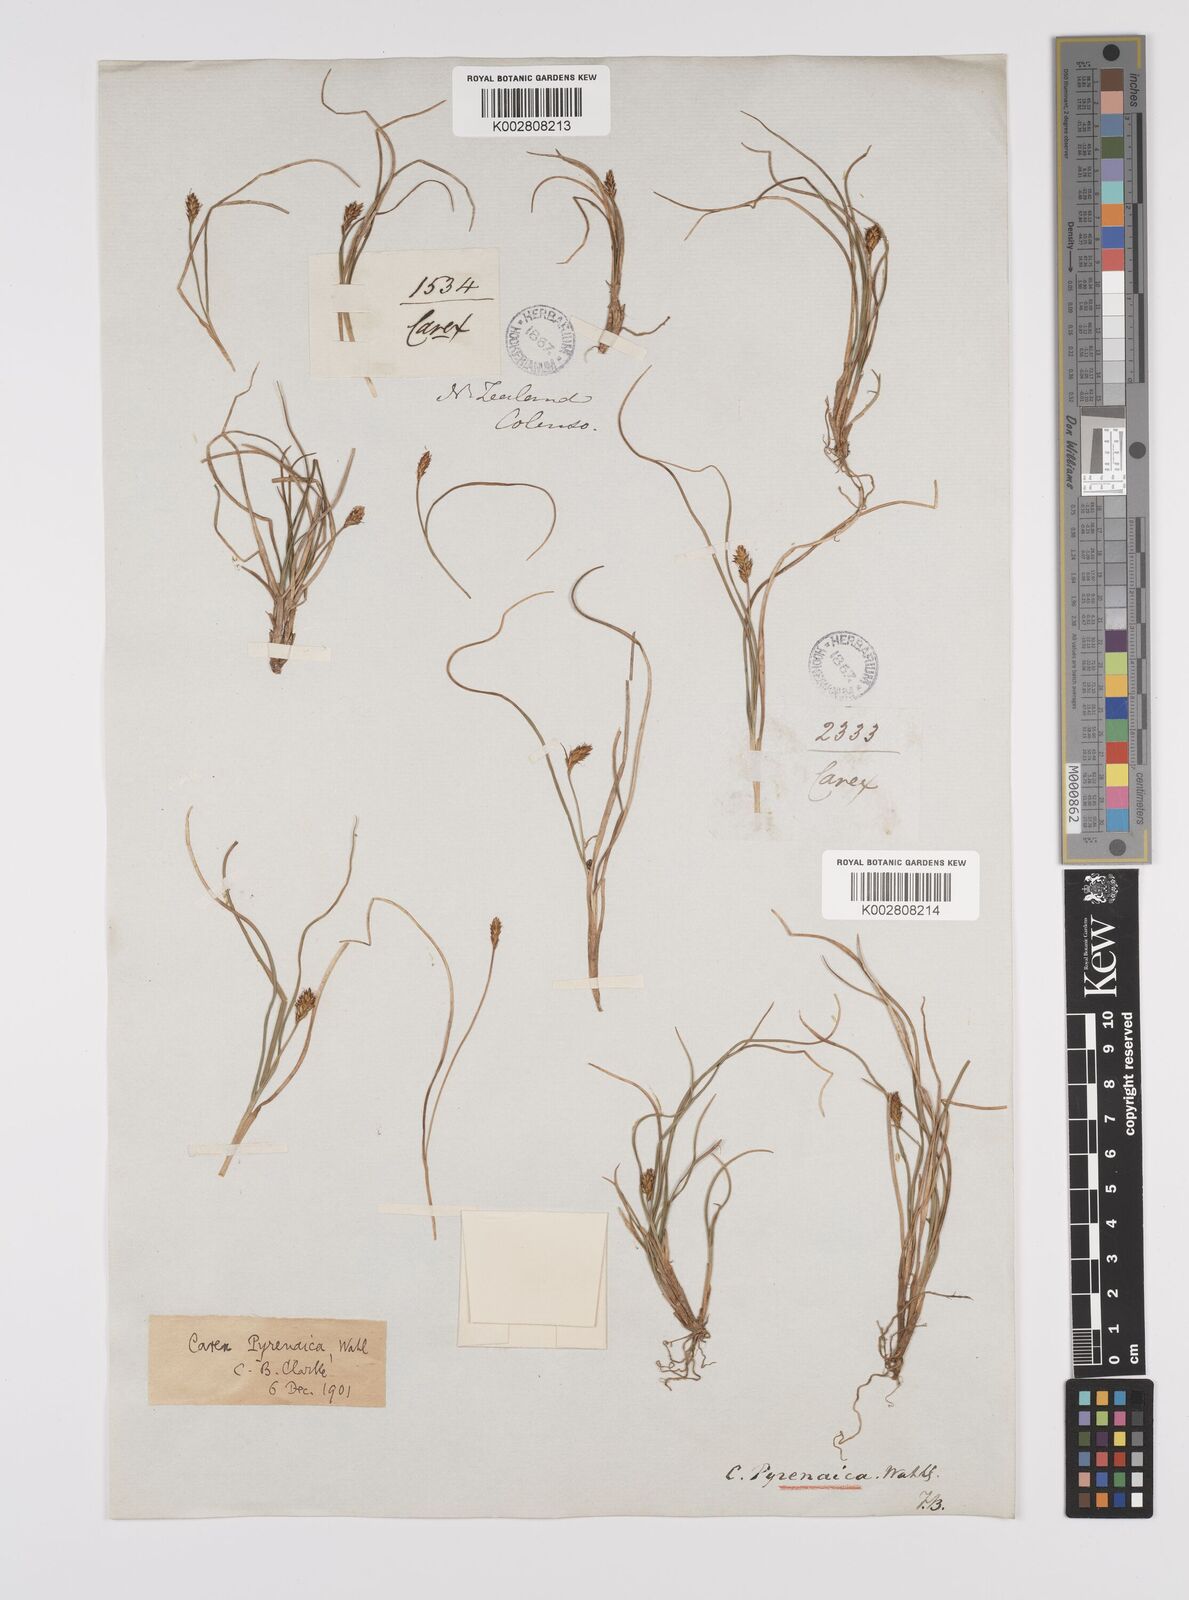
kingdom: Plantae
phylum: Tracheophyta
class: Liliopsida
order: Poales
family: Cyperaceae
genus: Carex
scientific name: Carex pyrenaica
